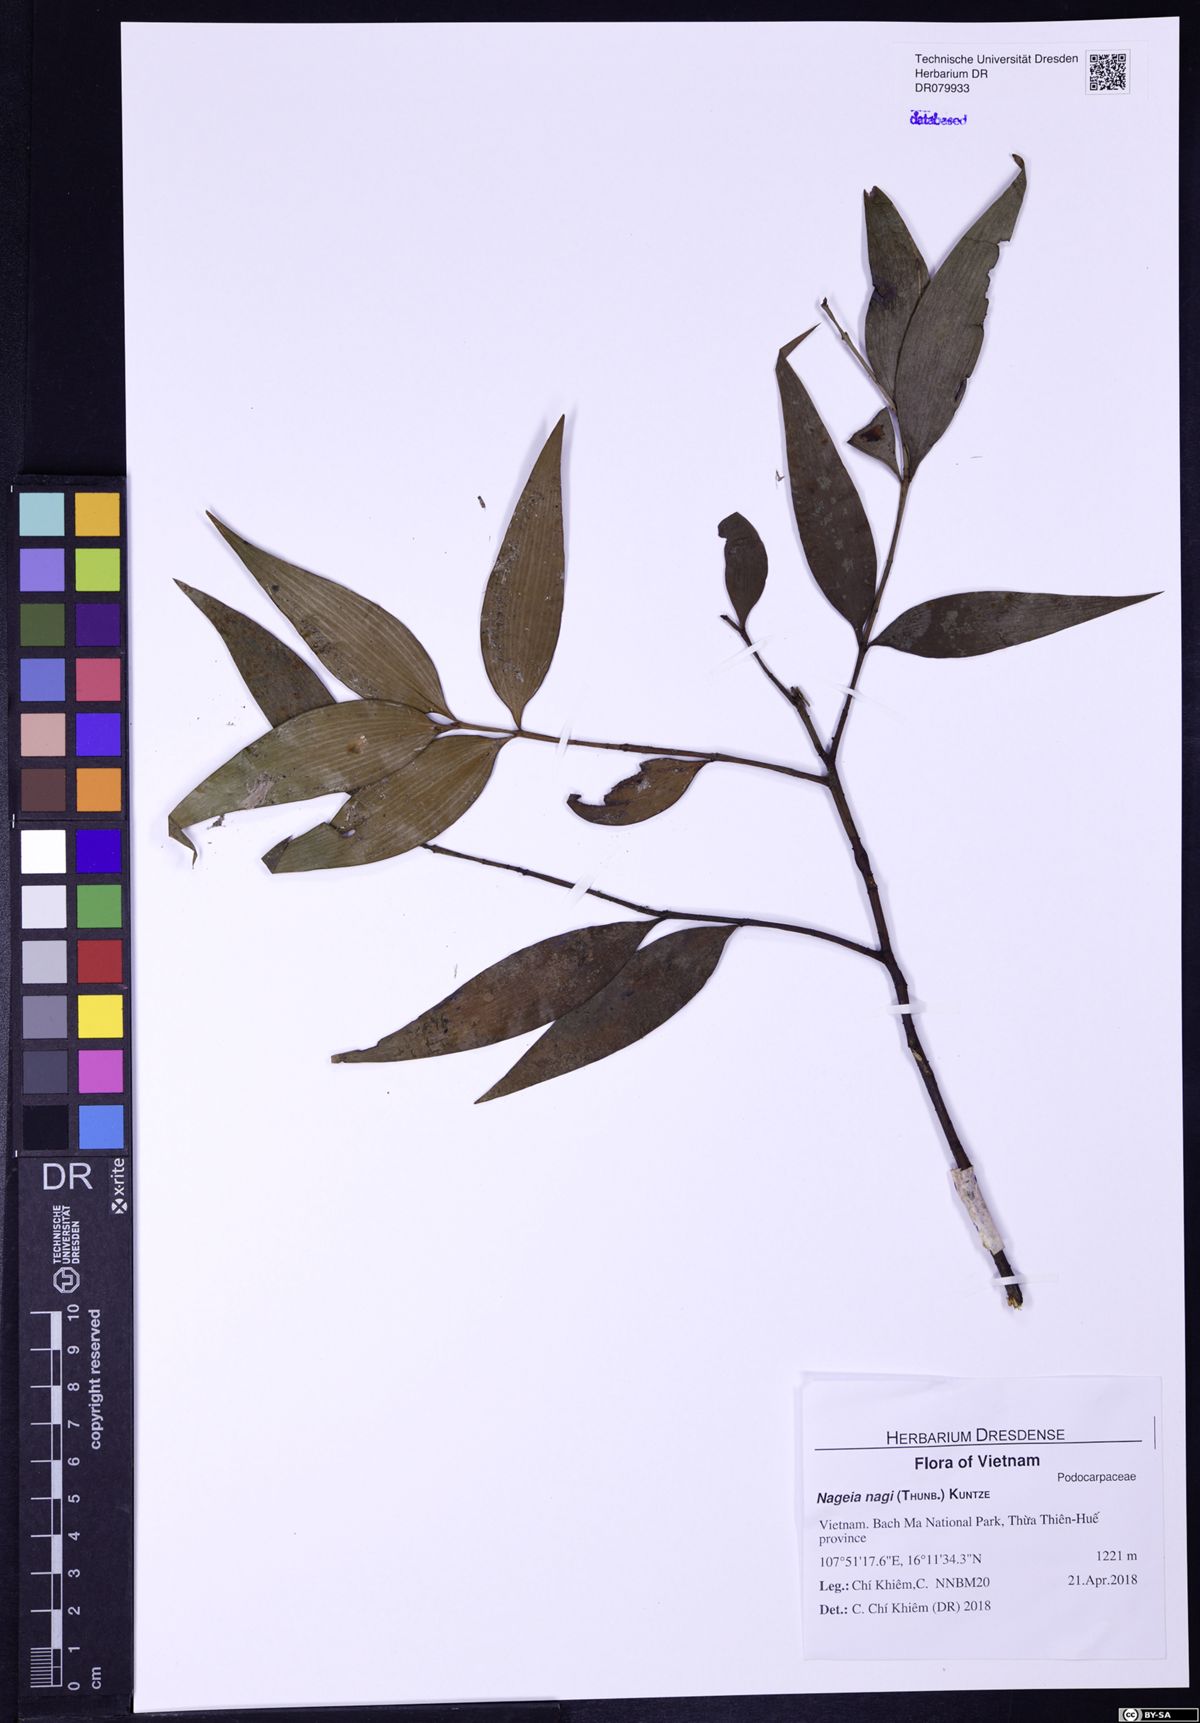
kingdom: Plantae
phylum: Tracheophyta
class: Pinopsida
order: Pinales
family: Podocarpaceae
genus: Nageia
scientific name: Nageia nagi
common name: Kaphal
